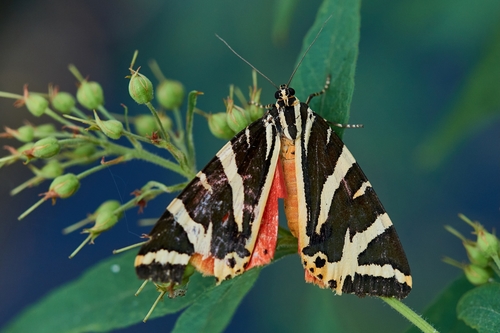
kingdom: Animalia
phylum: Arthropoda
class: Insecta
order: Lepidoptera
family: Erebidae
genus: Euplagia
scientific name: Euplagia quadripunctaria
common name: Jersey tiger
